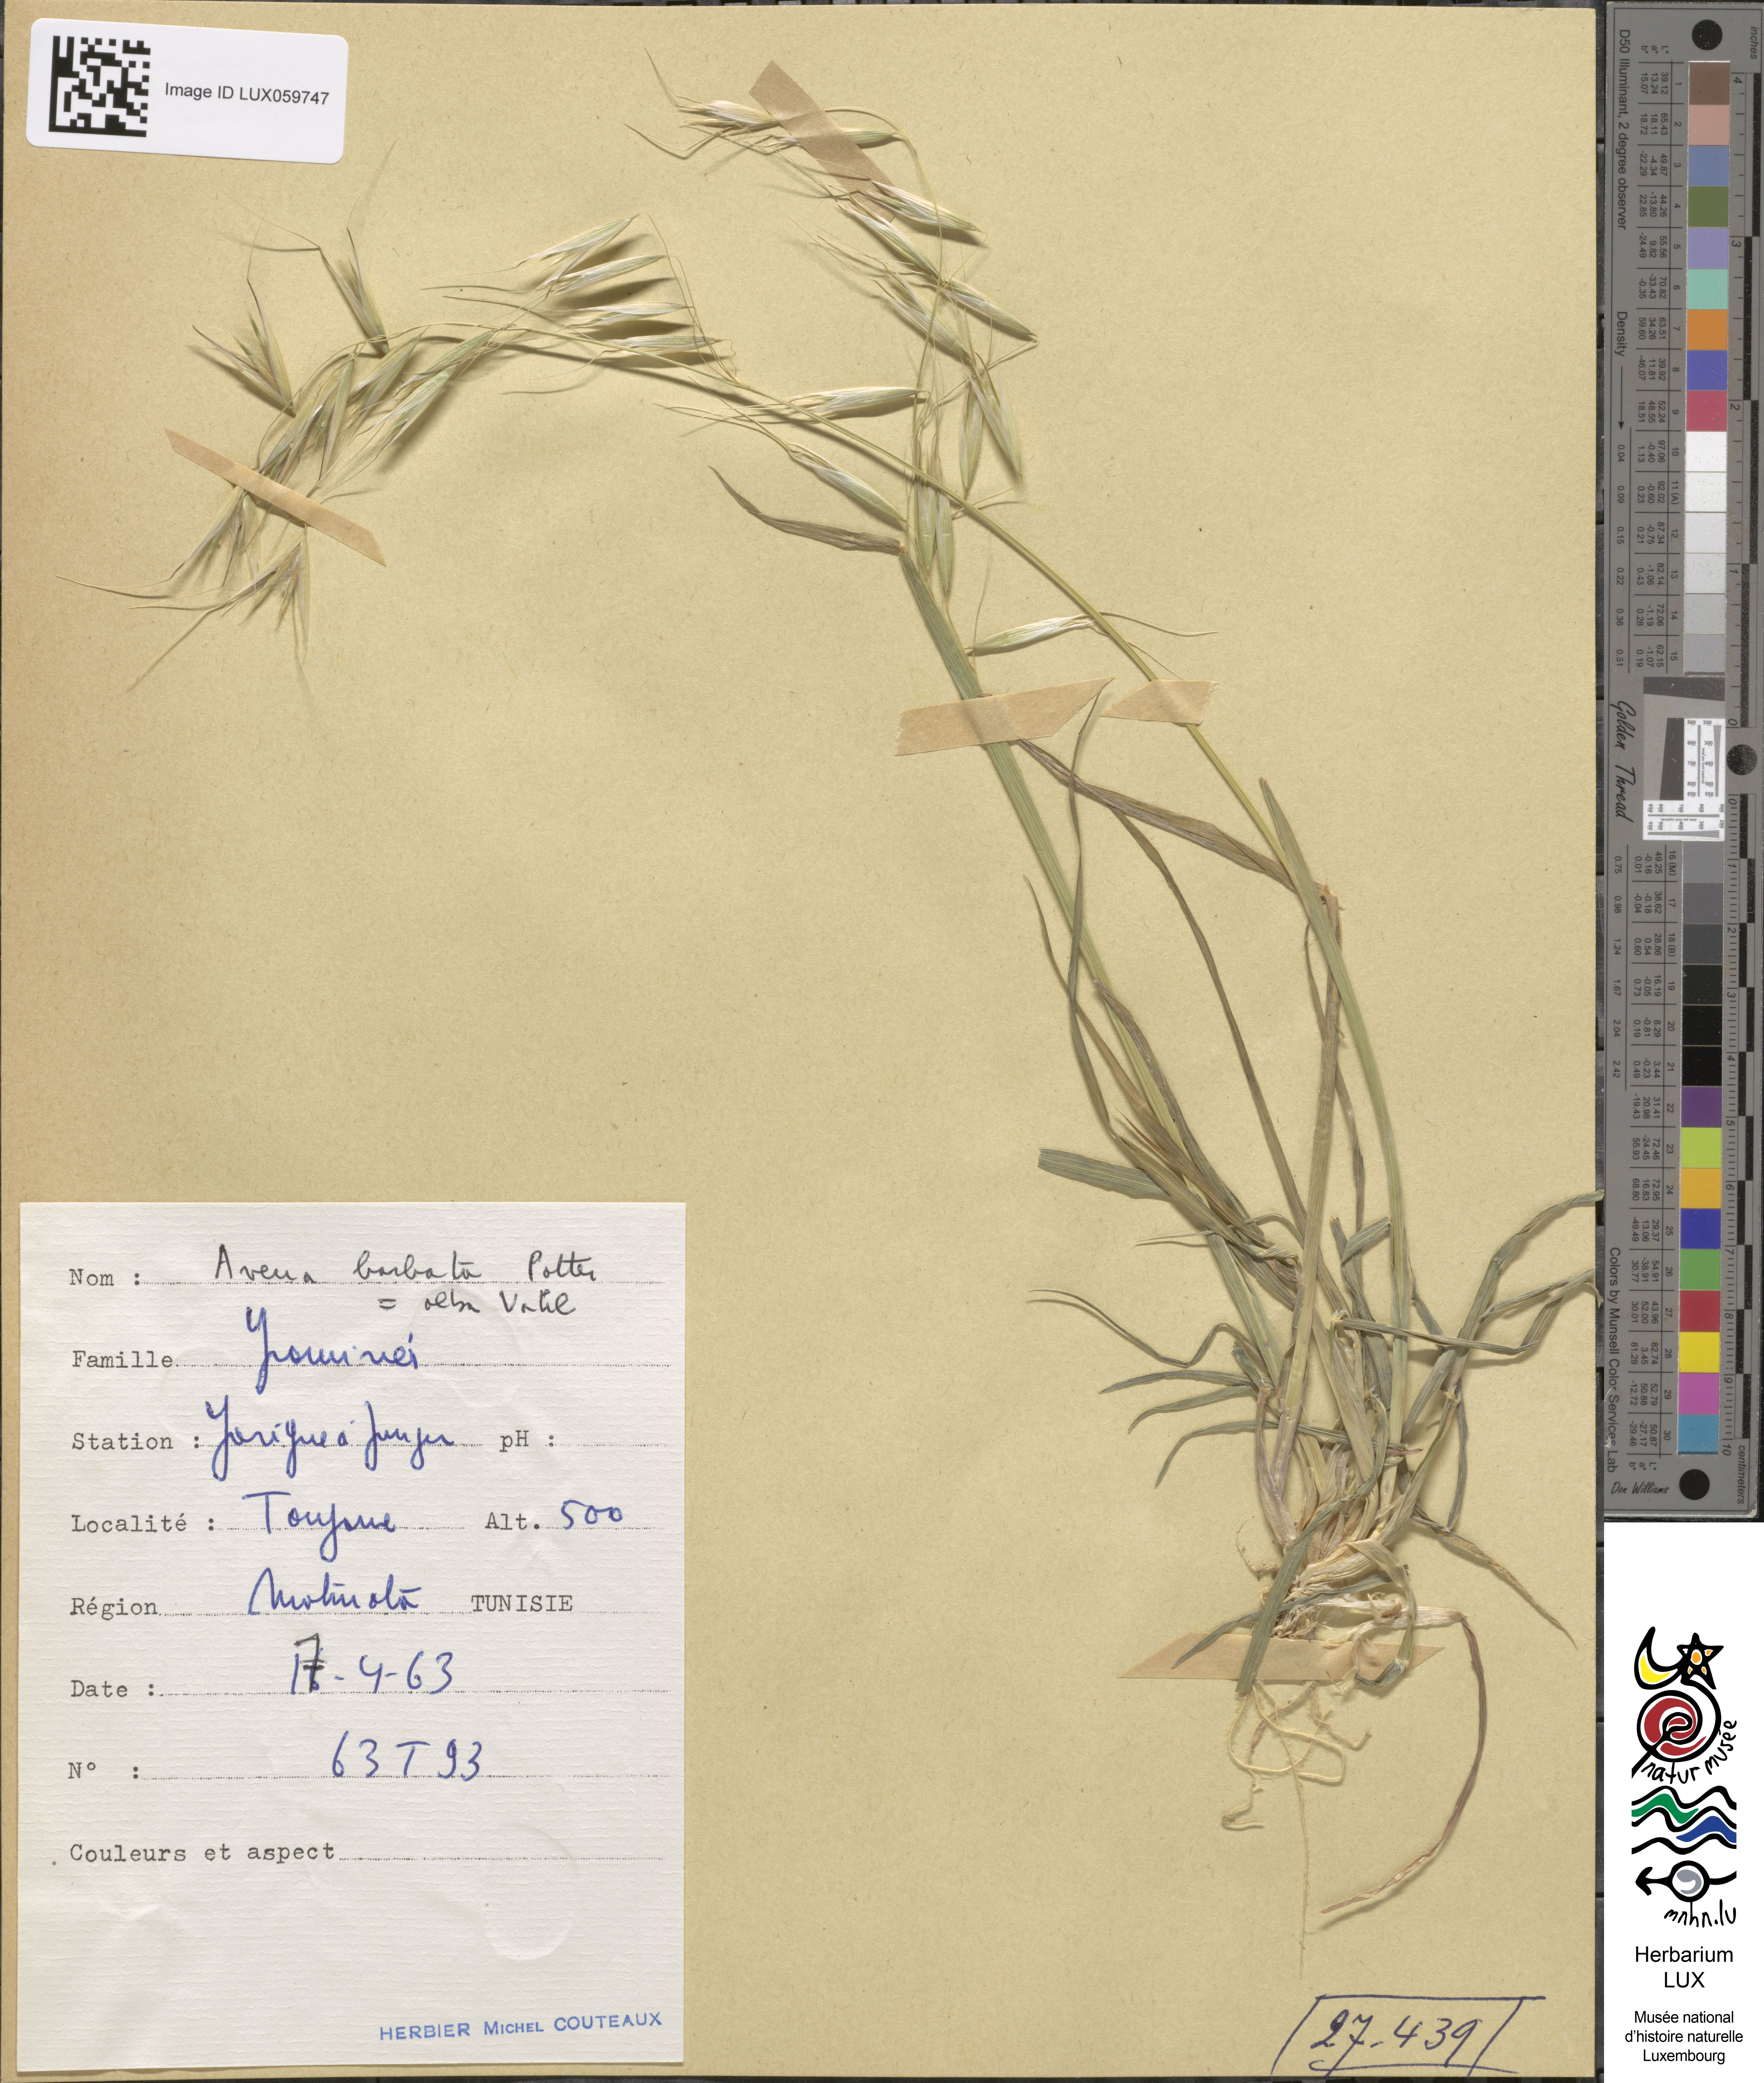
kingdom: Plantae
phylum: Tracheophyta
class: Liliopsida
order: Poales
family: Poaceae
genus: Avena
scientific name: Avena barbata
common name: Slender oat
